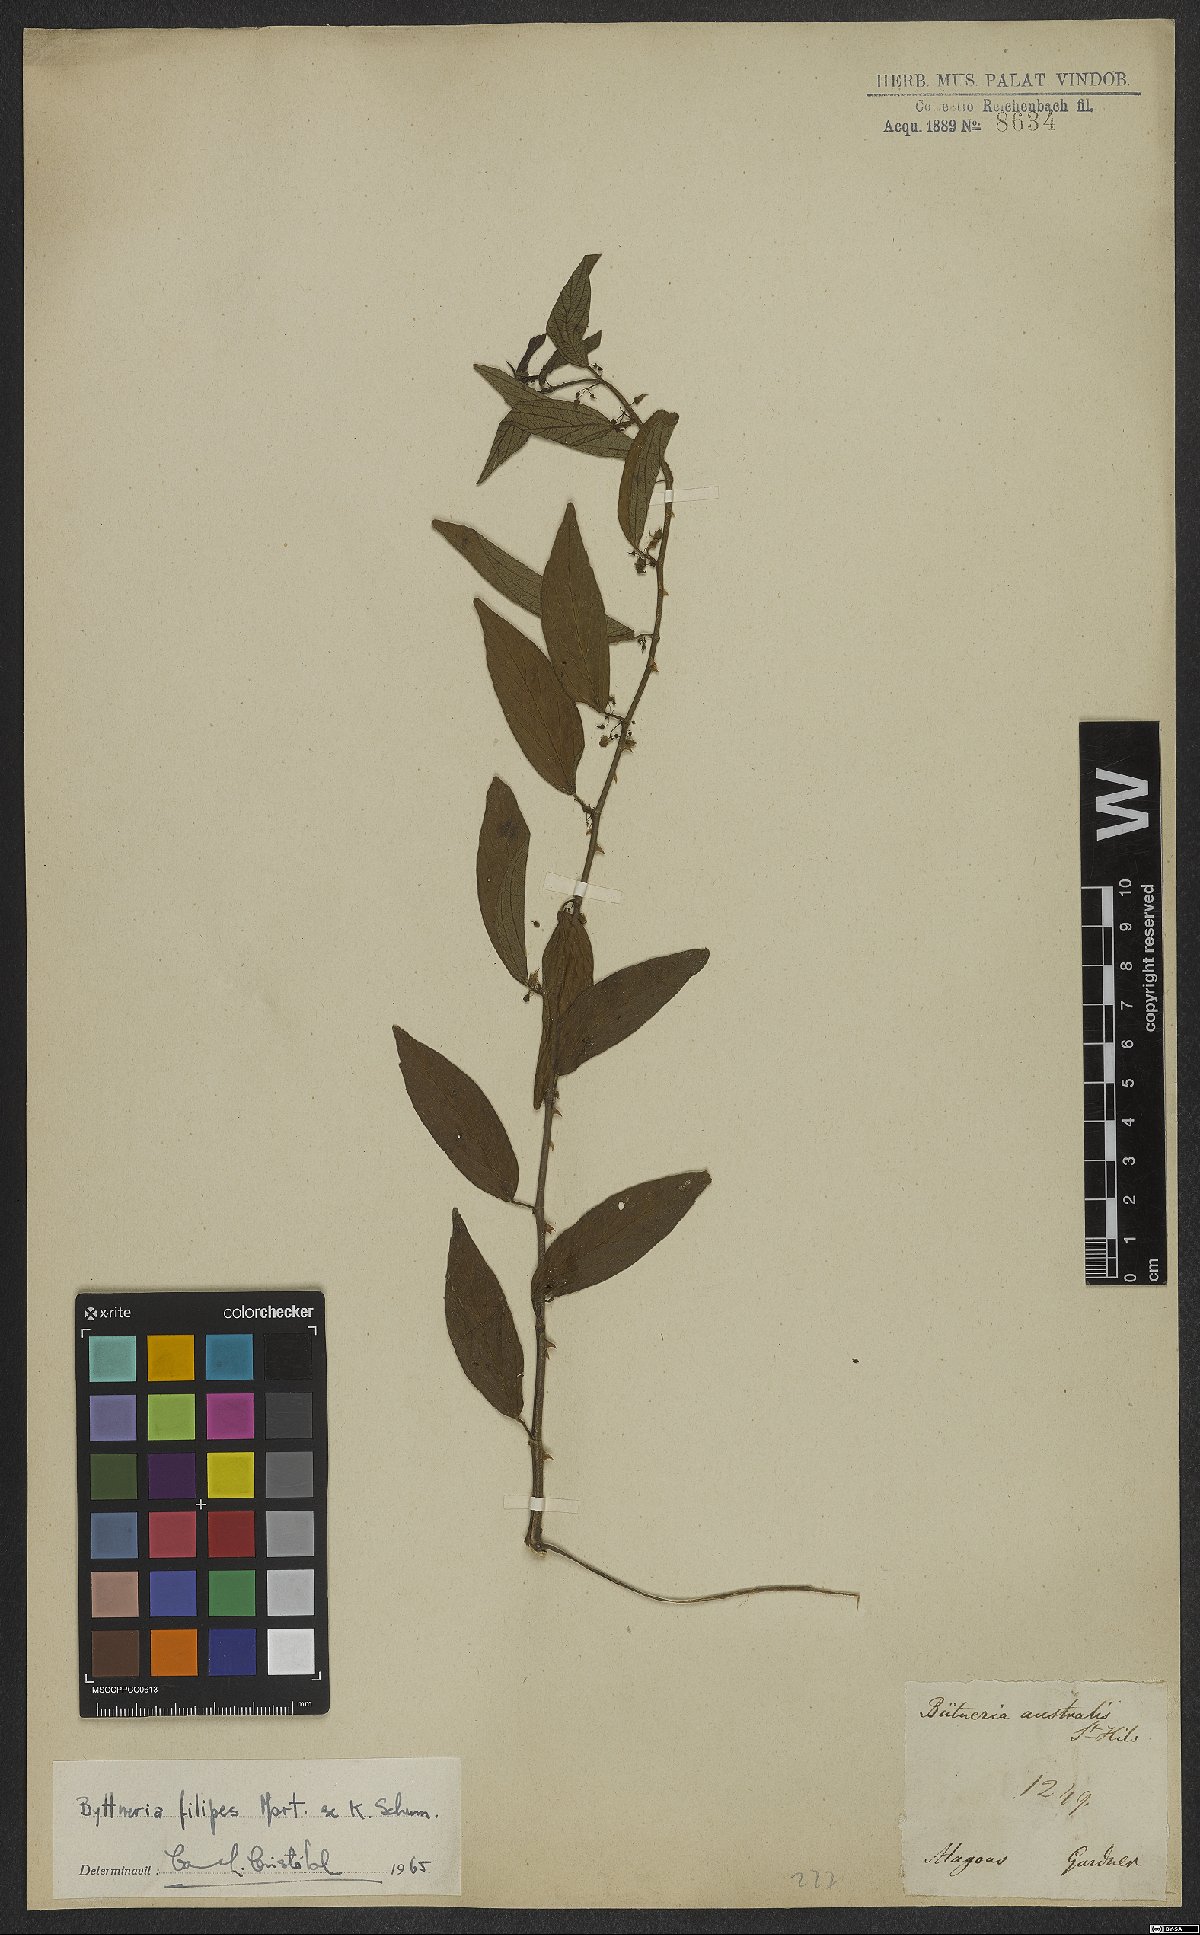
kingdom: Plantae
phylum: Tracheophyta
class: Magnoliopsida
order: Malvales
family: Malvaceae
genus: Byttneria
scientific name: Byttneria filipes
